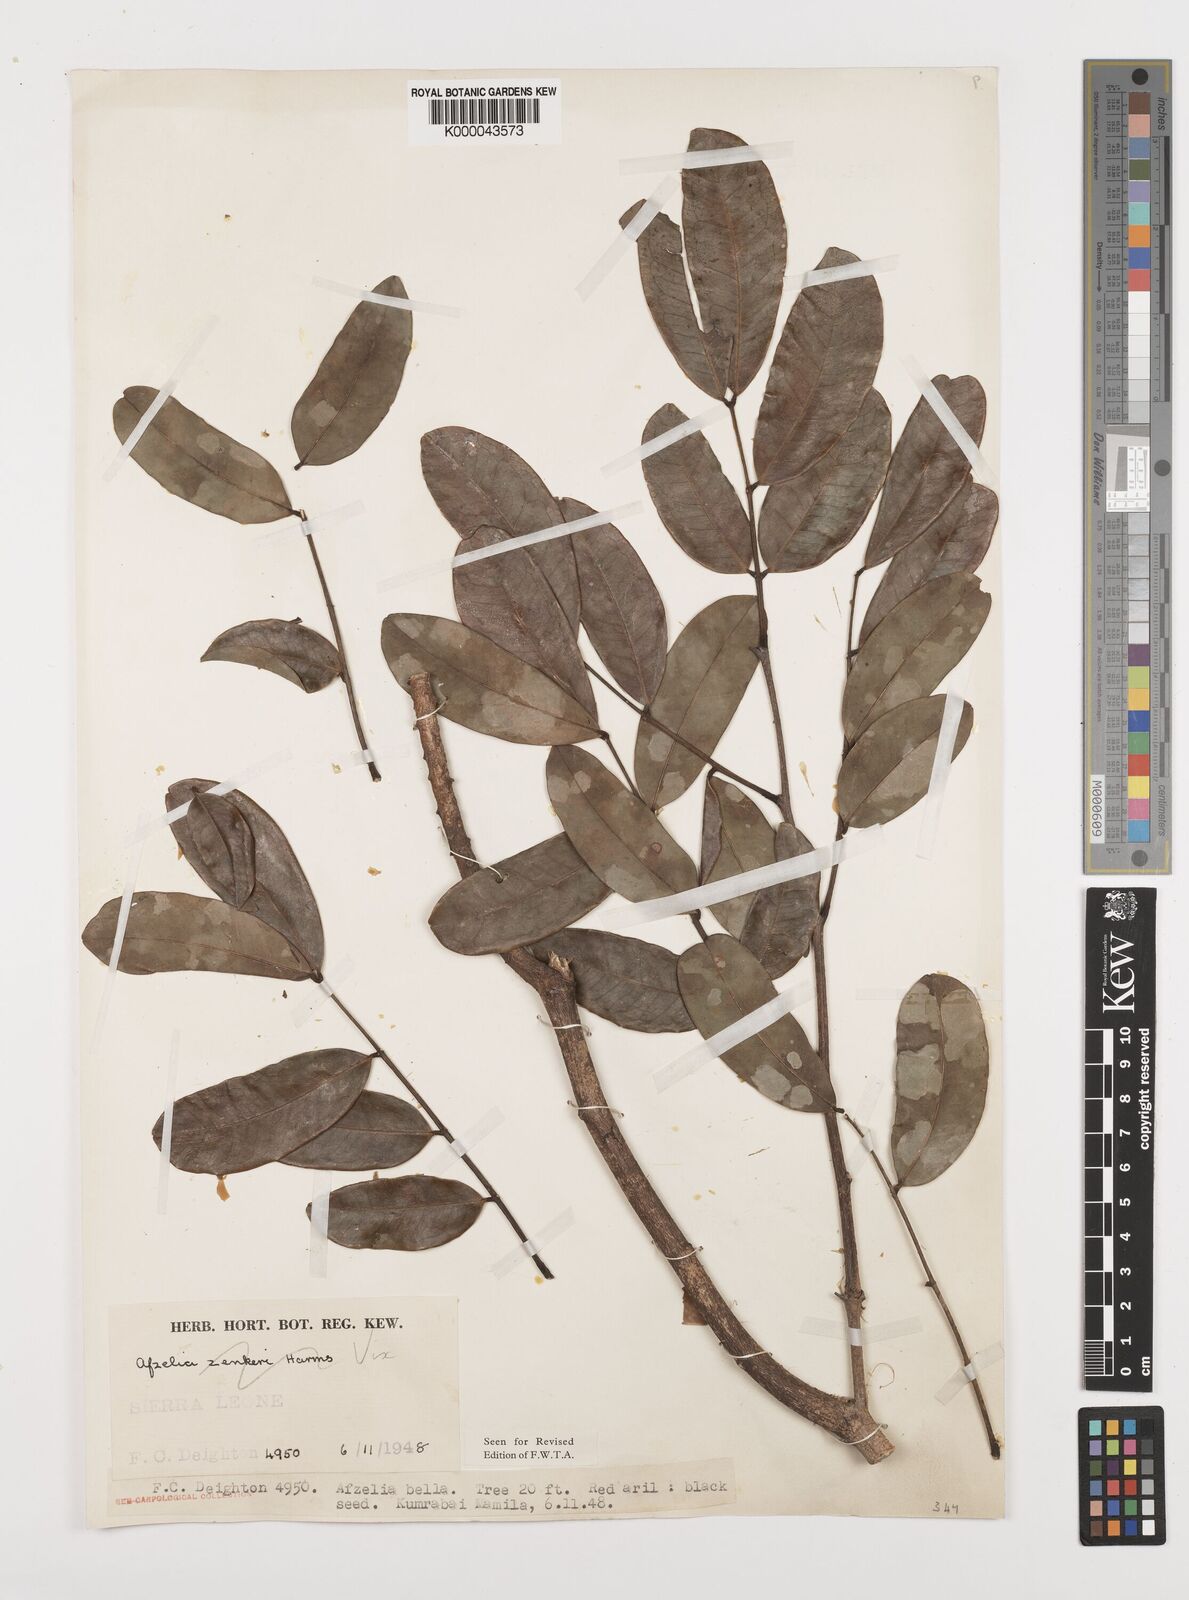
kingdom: Plantae
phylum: Tracheophyta
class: Magnoliopsida
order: Fabales
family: Fabaceae
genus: Afzelia
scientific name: Afzelia
